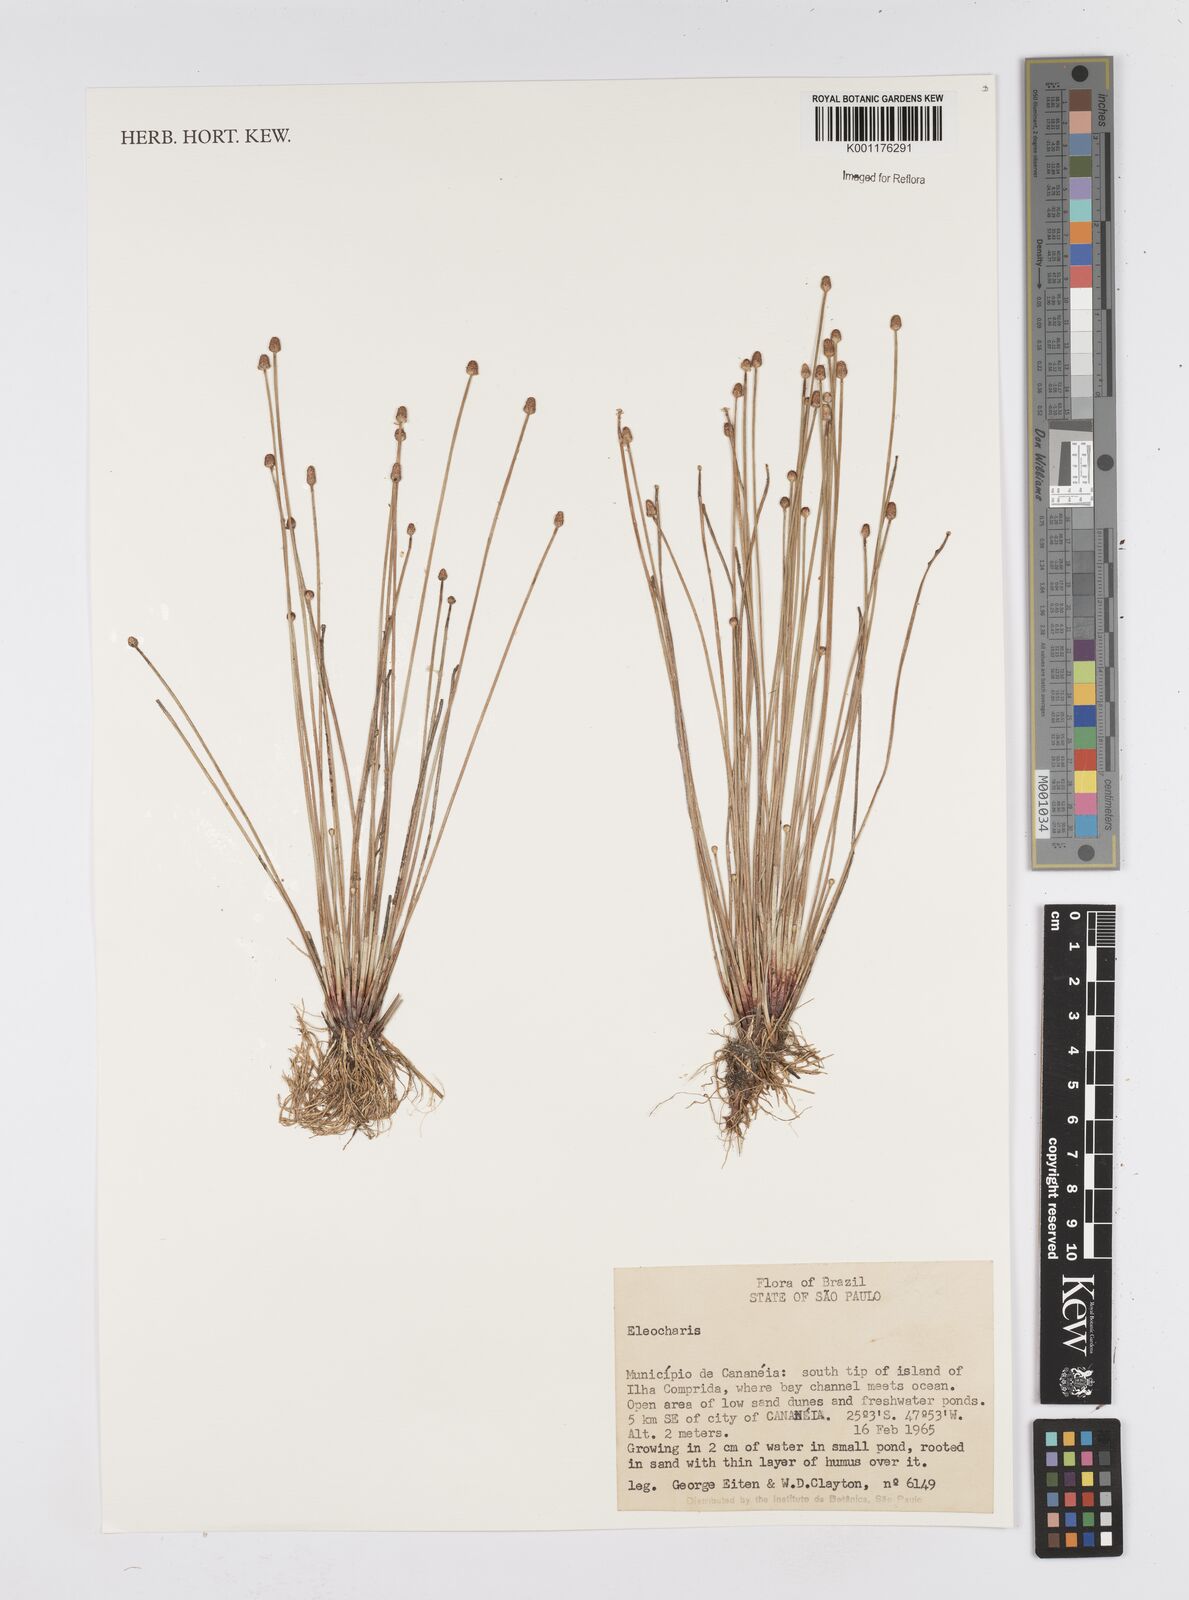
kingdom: Plantae
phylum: Tracheophyta
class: Liliopsida
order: Poales
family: Cyperaceae
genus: Eleocharis
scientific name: Eleocharis
